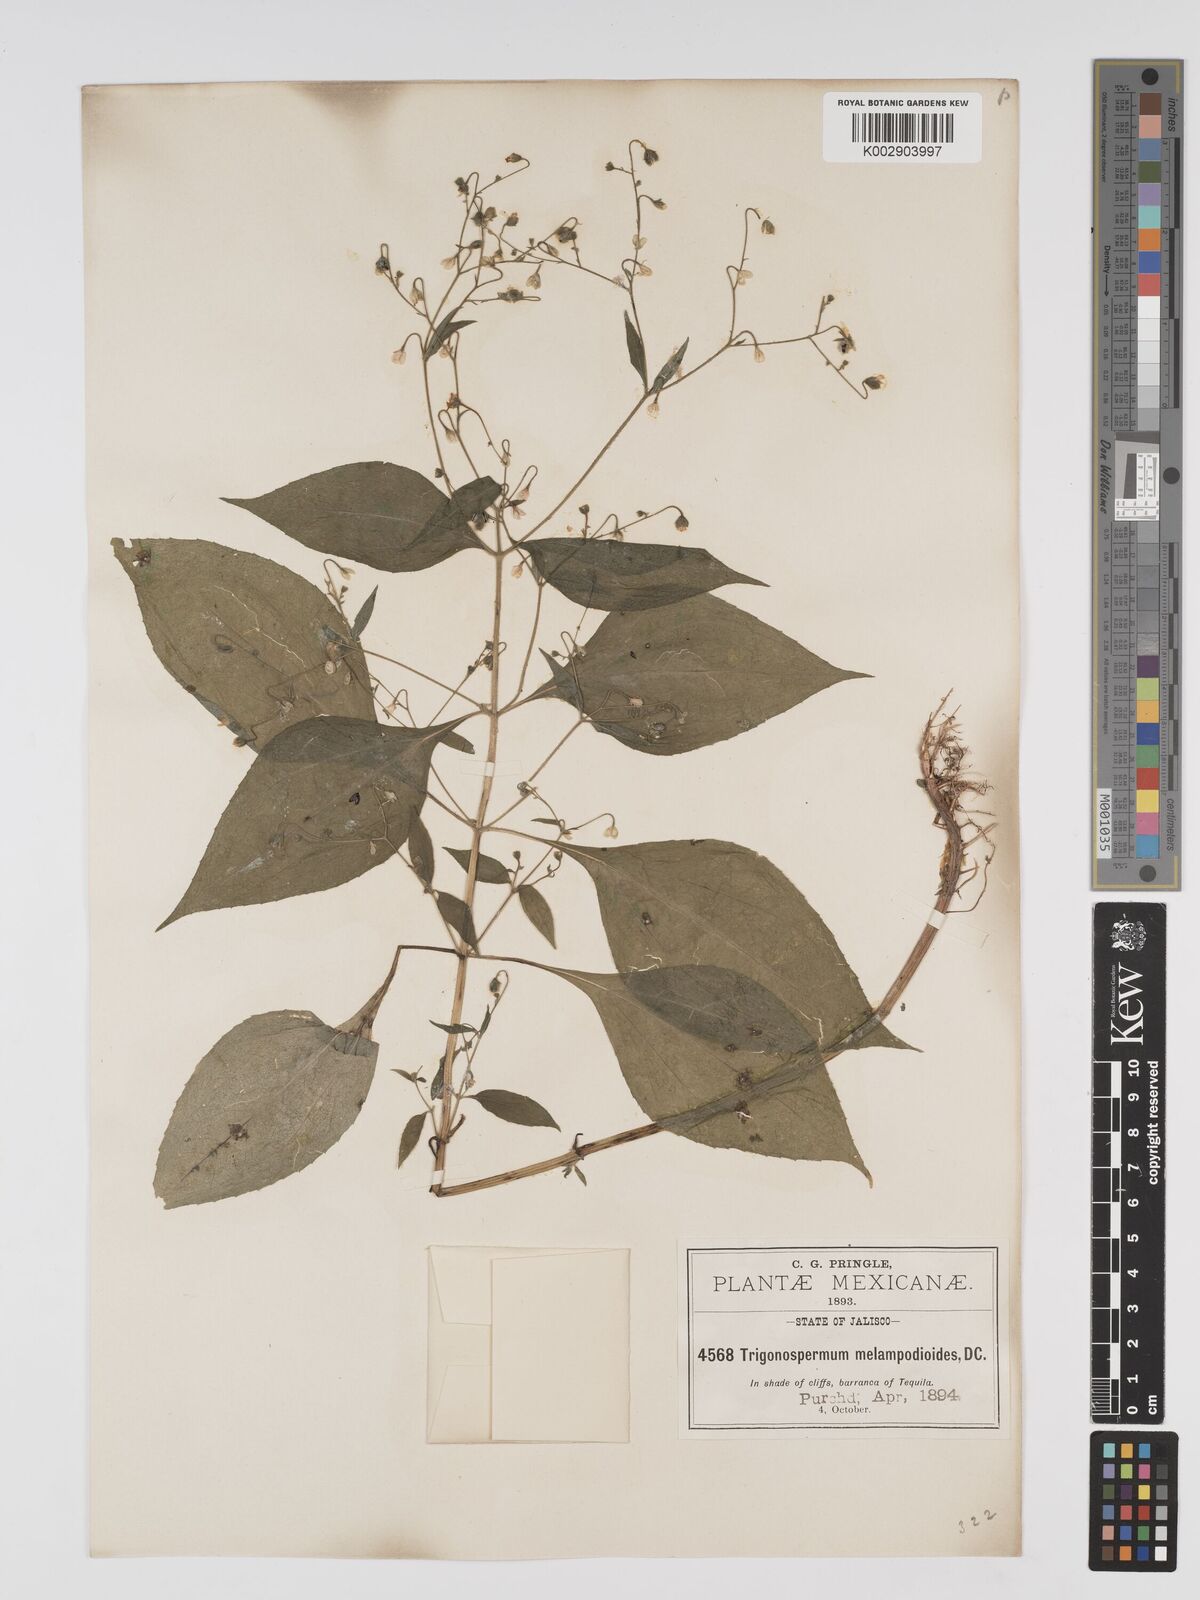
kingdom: Plantae
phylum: Tracheophyta
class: Magnoliopsida
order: Asterales
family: Asteraceae
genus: Trigonospermum
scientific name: Trigonospermum melampodioides
